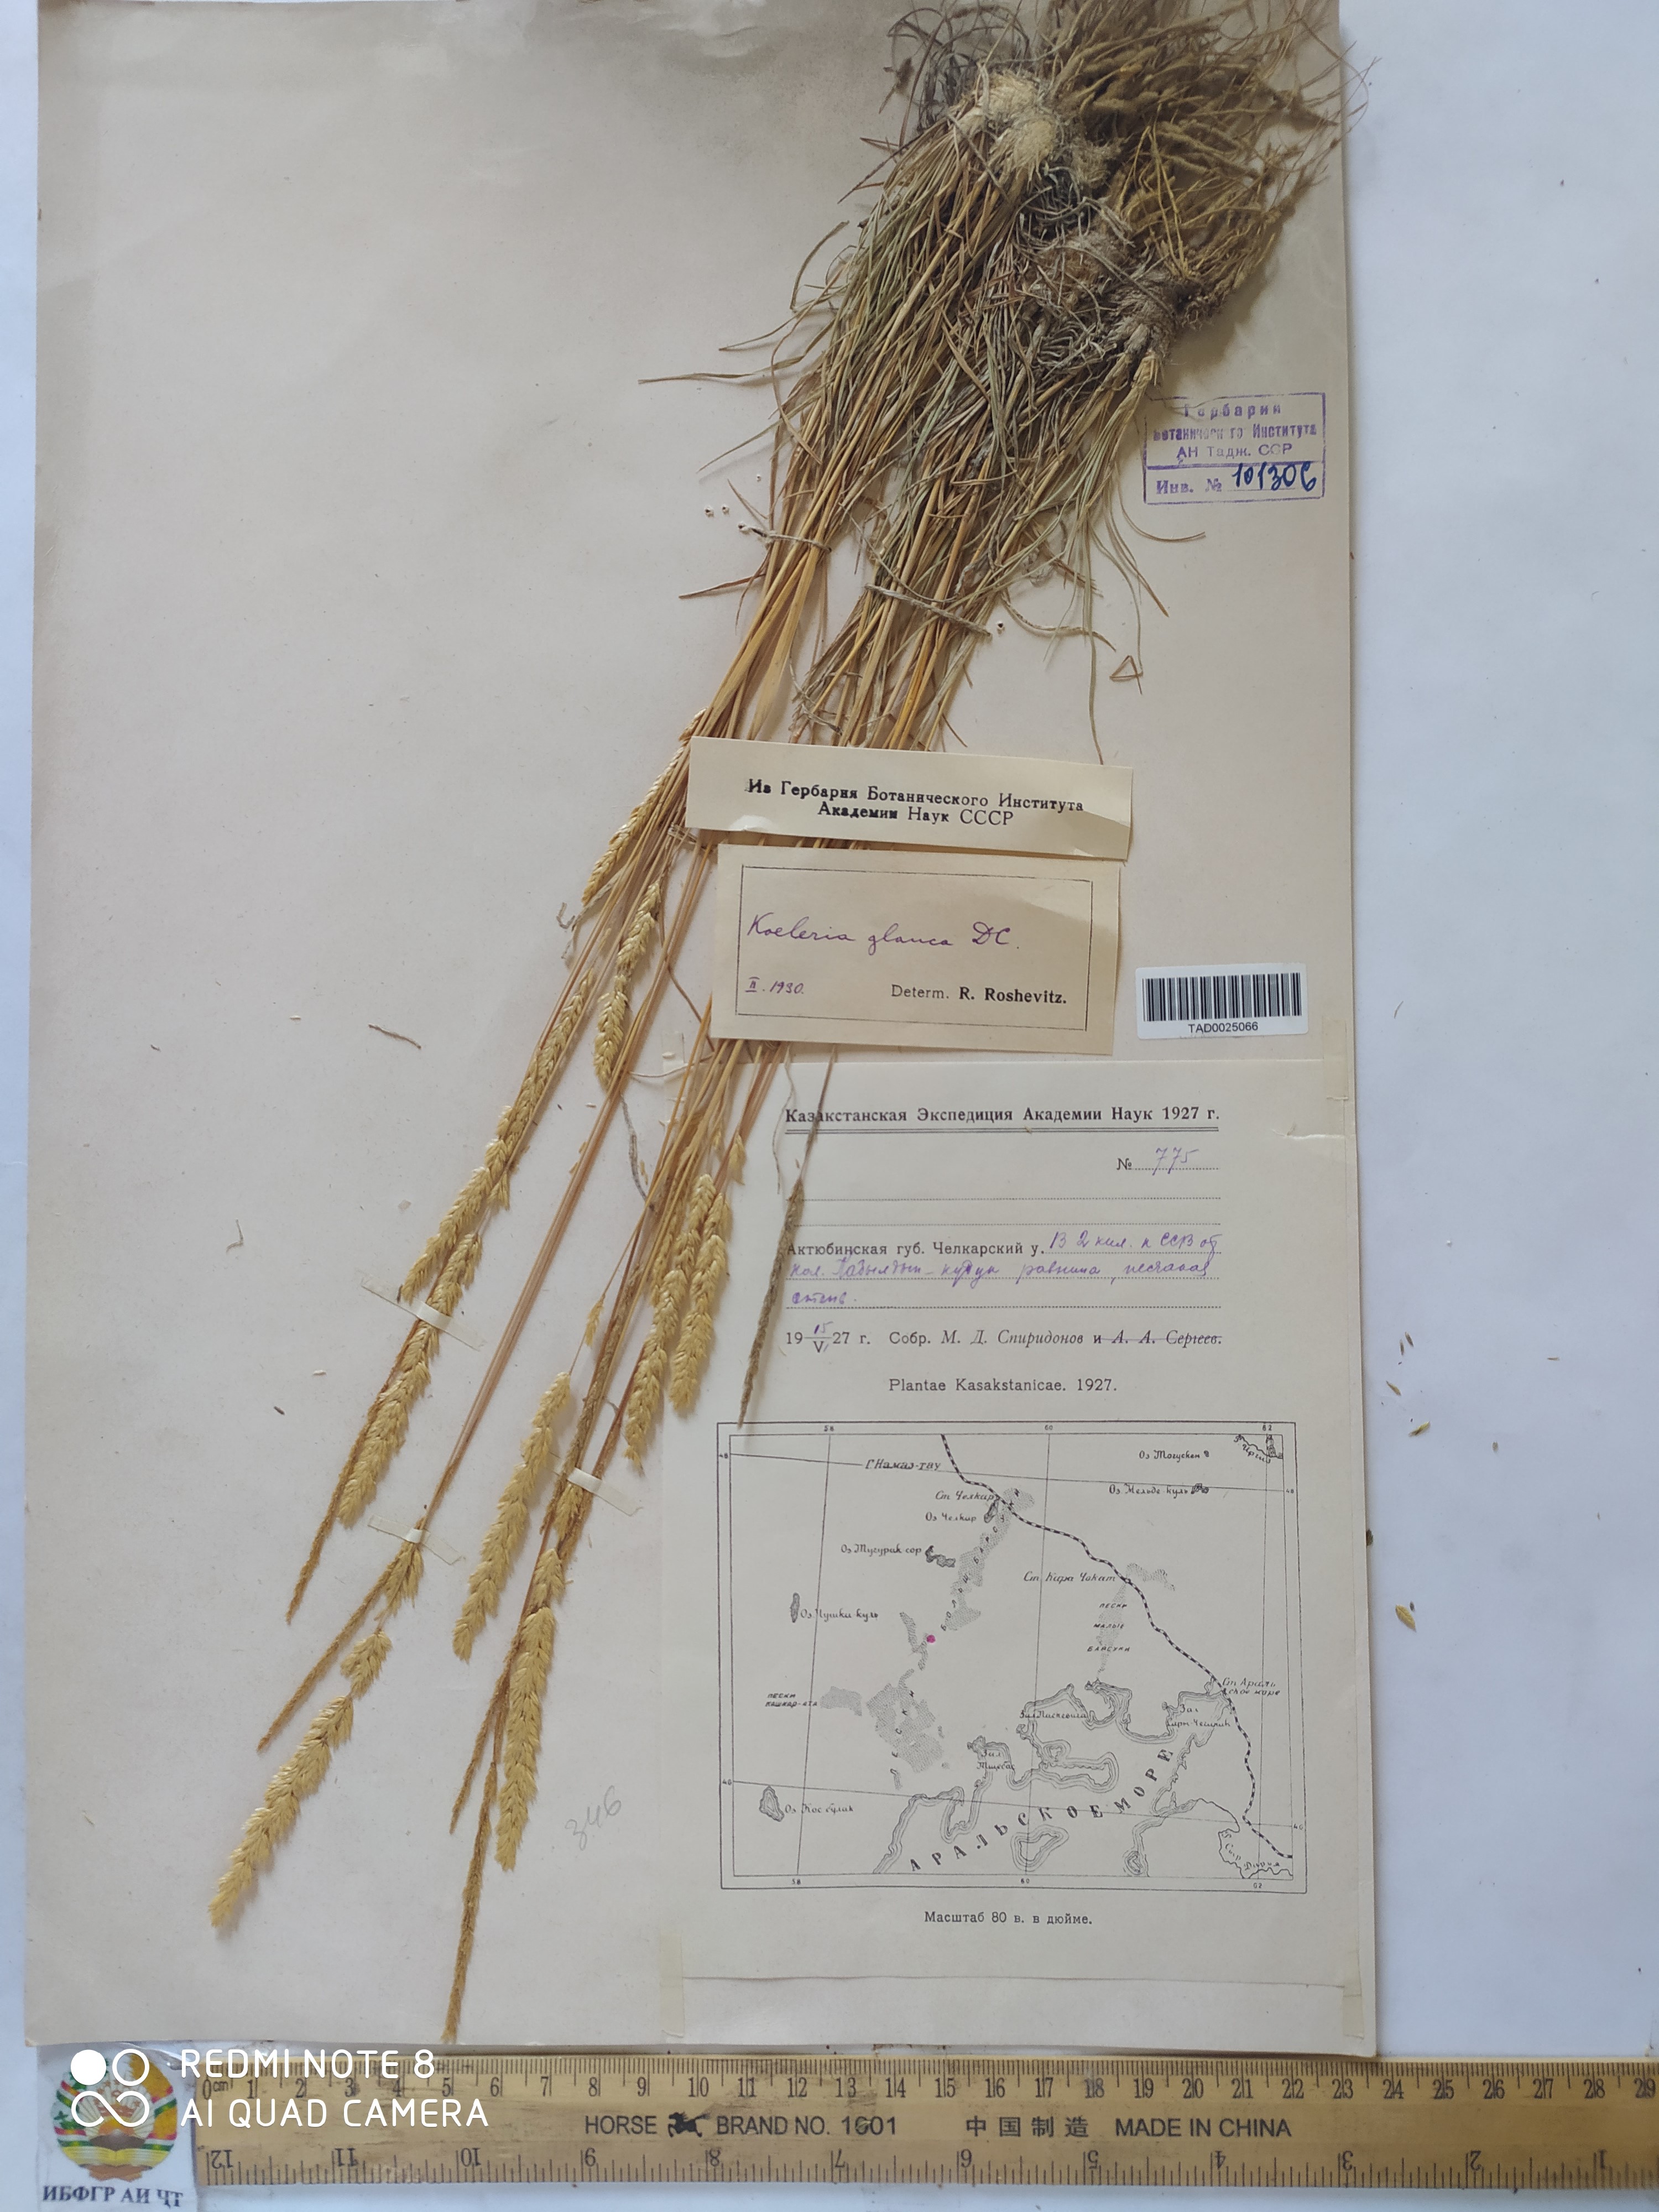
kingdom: Plantae
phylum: Tracheophyta
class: Liliopsida
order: Poales
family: Poaceae
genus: Koeleria
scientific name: Koeleria glauca
